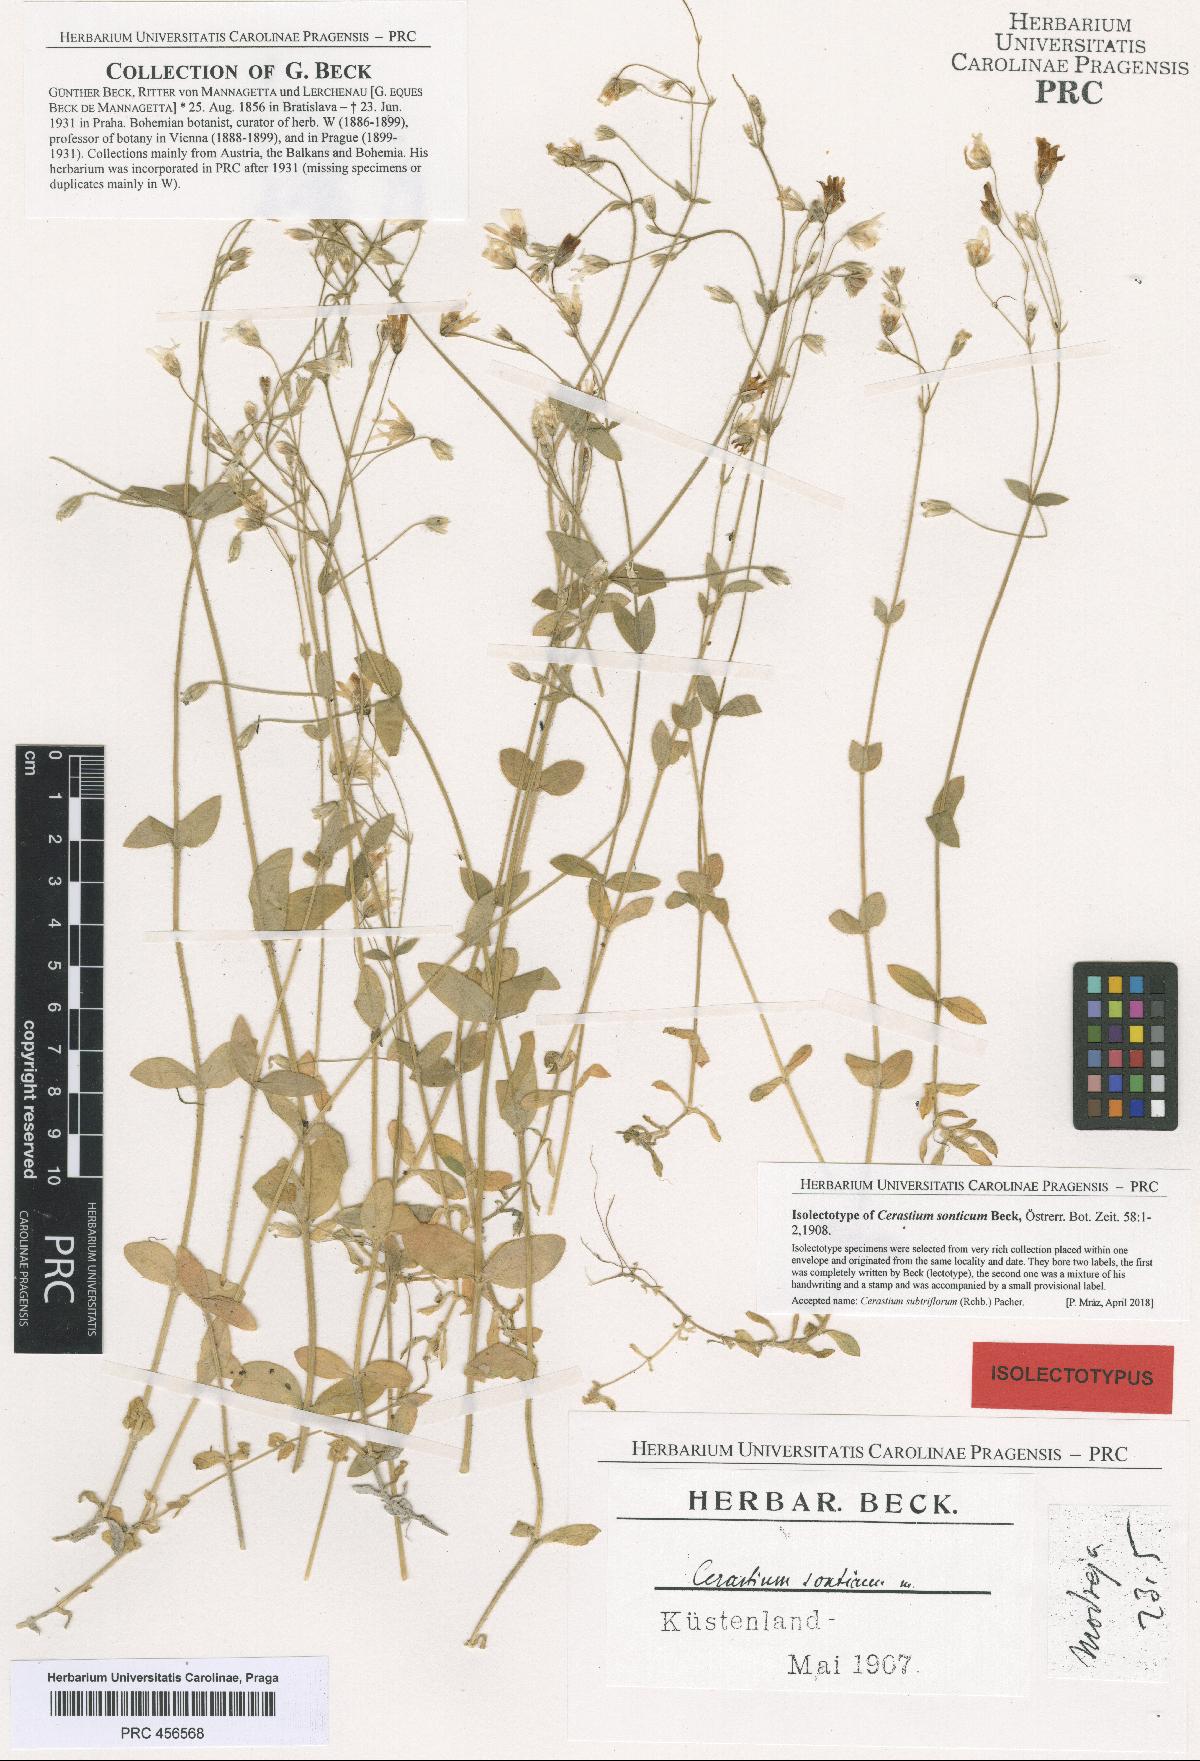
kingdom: Plantae
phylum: Tracheophyta
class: Magnoliopsida
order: Caryophyllales
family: Caryophyllaceae
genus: Cerastium
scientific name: Cerastium subtriflorum
